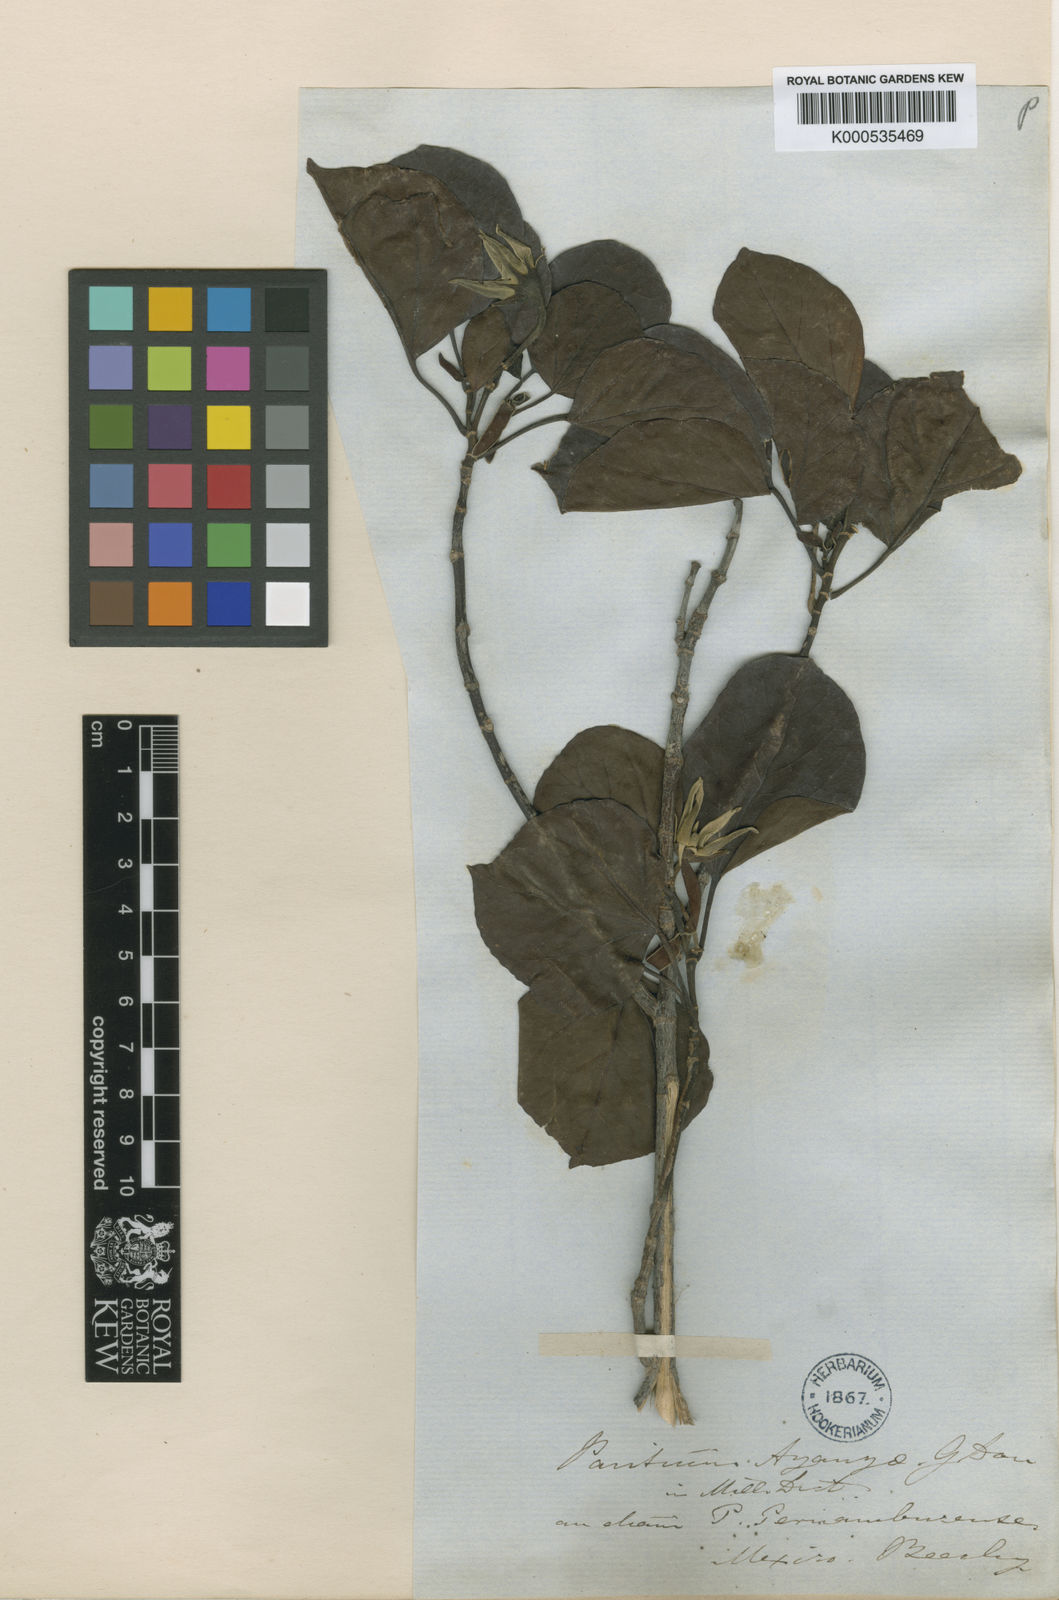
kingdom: Plantae
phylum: Tracheophyta
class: Magnoliopsida
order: Malvales
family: Malvaceae
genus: Hibiscus
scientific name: Hibiscus
